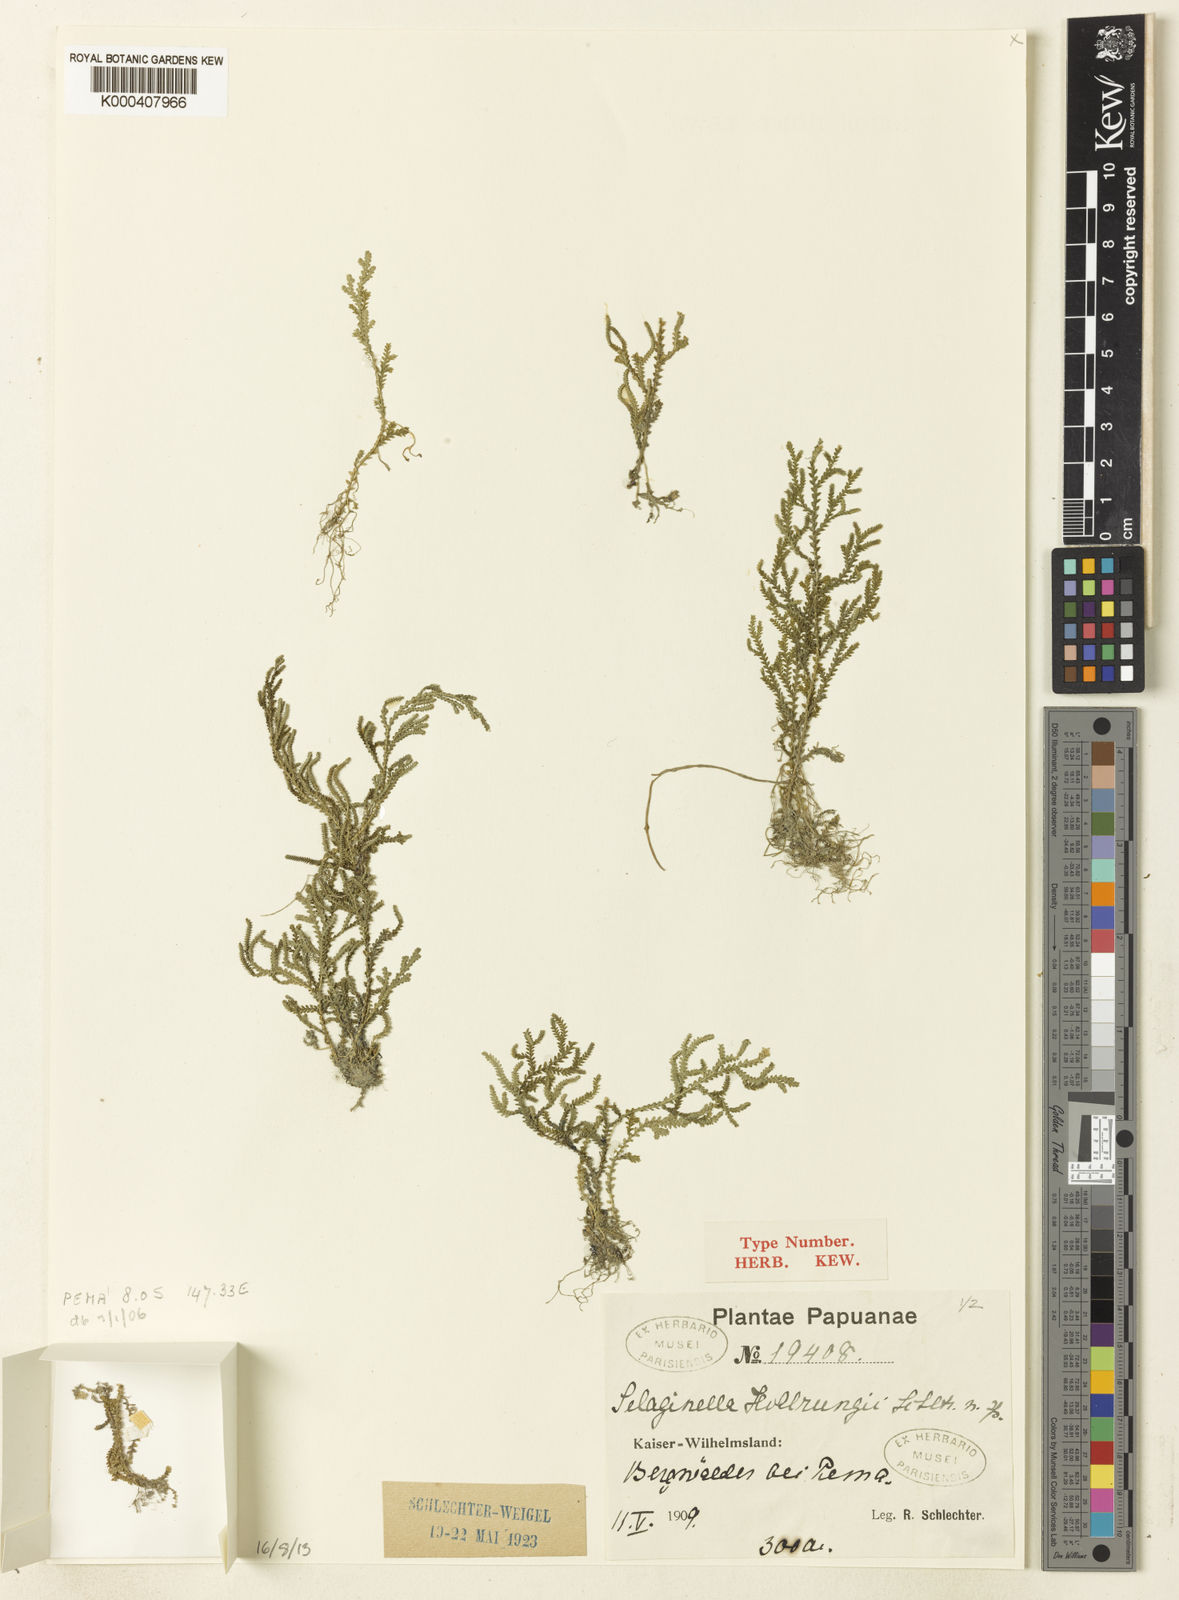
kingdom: Plantae
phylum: Tracheophyta
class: Lycopodiopsida
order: Selaginellales
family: Selaginellaceae
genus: Selaginella
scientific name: Selaginella hollrungii
